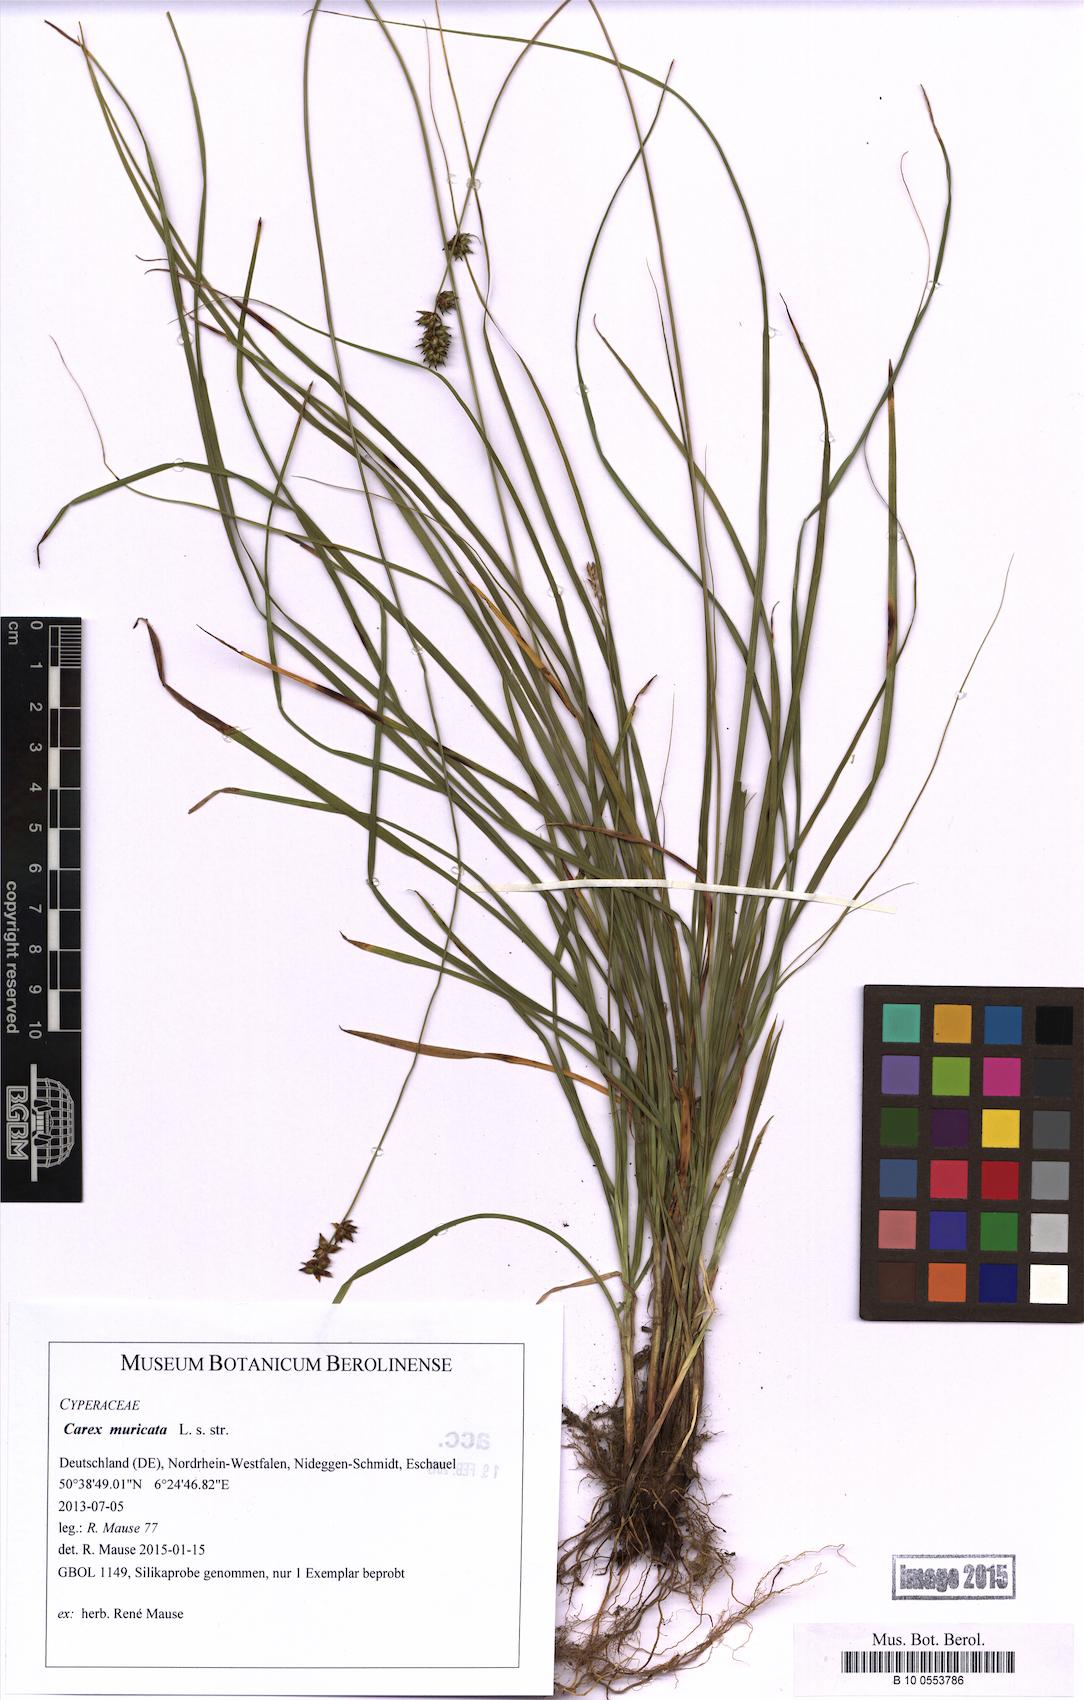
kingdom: Plantae
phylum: Tracheophyta
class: Liliopsida
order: Poales
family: Cyperaceae
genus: Carex
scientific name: Carex muricata
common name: Rough sedge
